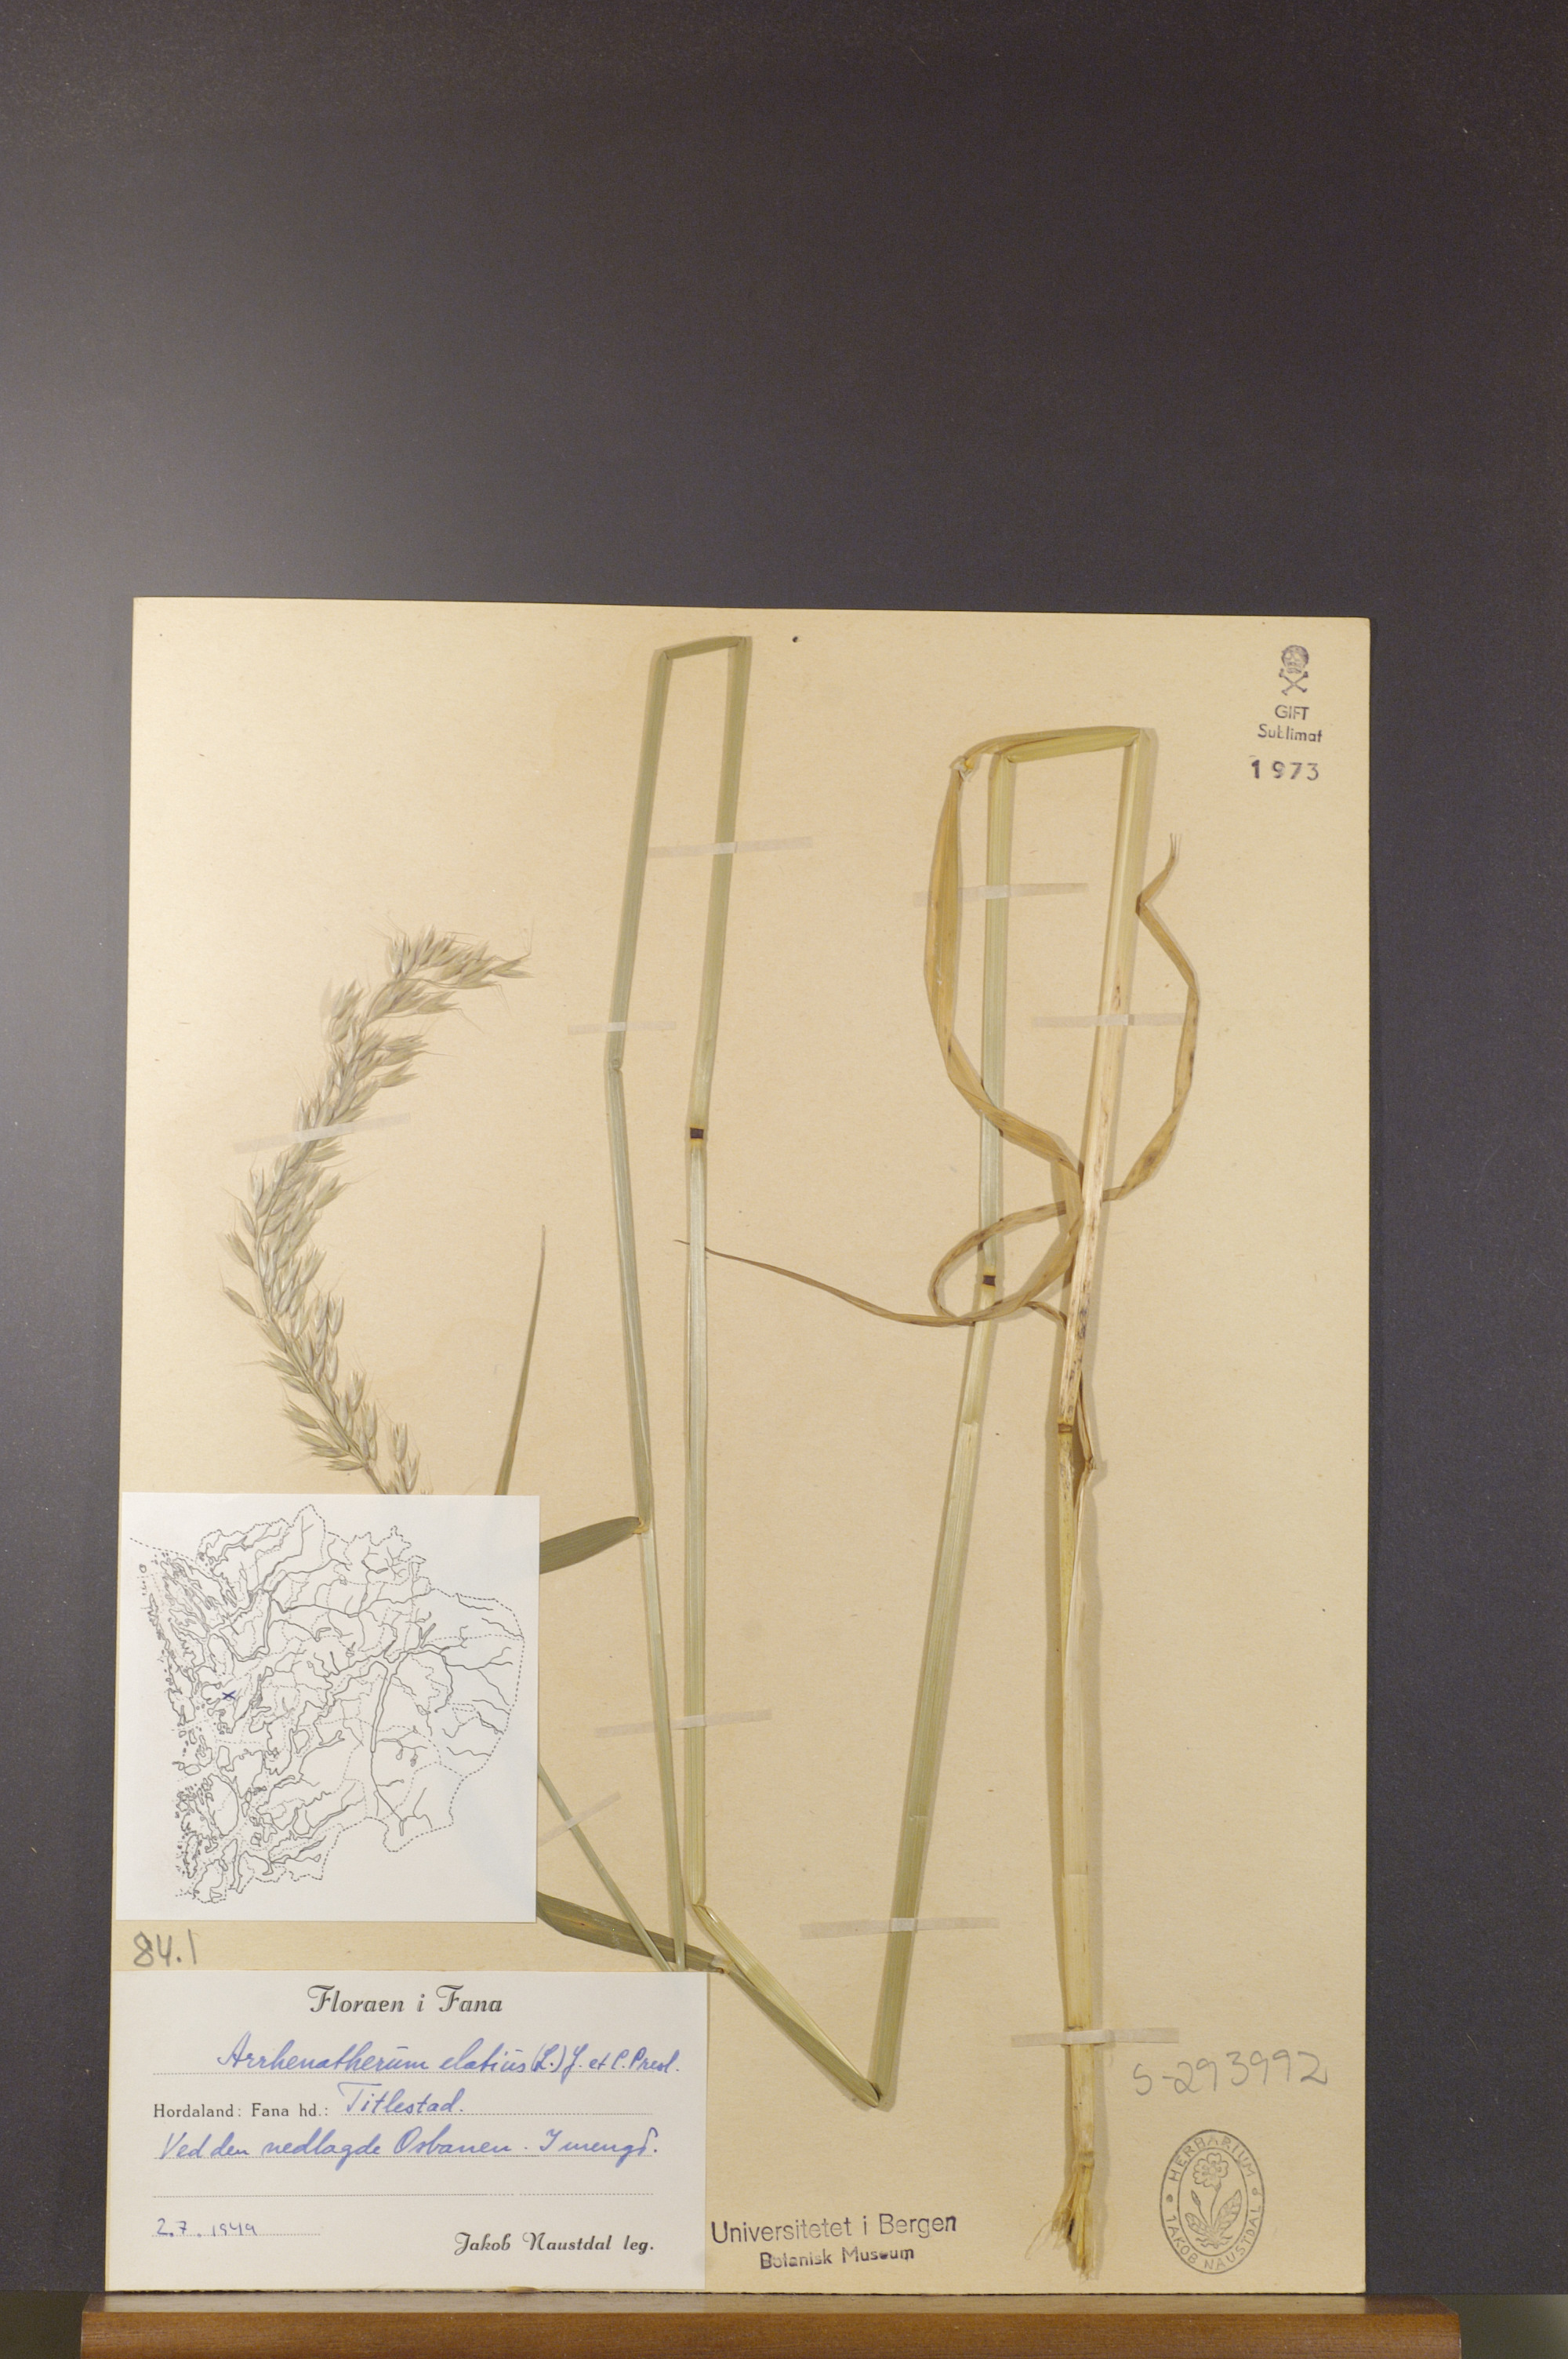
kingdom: Plantae
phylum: Tracheophyta
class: Liliopsida
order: Poales
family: Poaceae
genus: Arrhenatherum
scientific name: Arrhenatherum elatius
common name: Tall oatgrass
